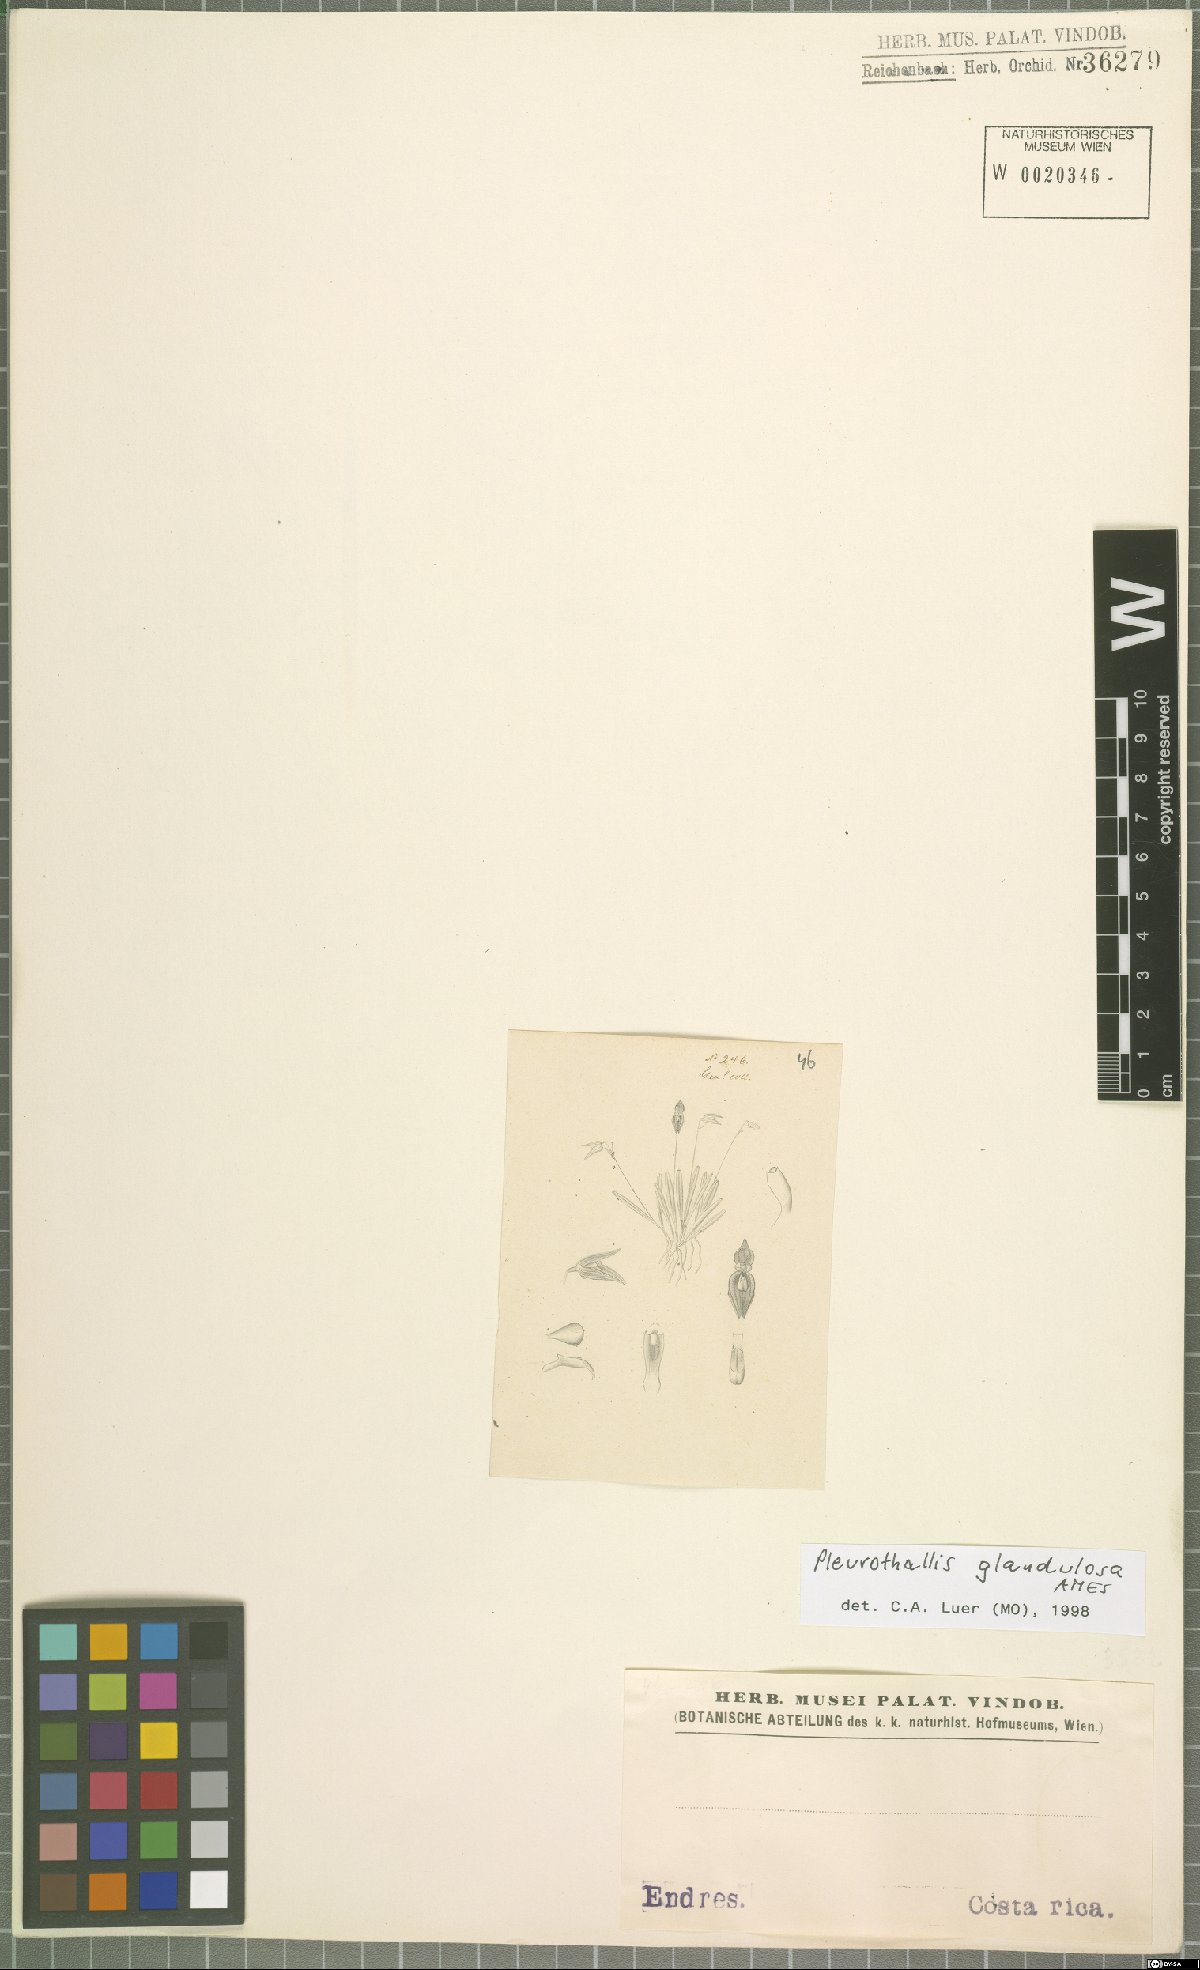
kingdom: Plantae
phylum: Tracheophyta
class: Liliopsida
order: Asparagales
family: Orchidaceae
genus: Specklinia
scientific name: Specklinia glandulosa
